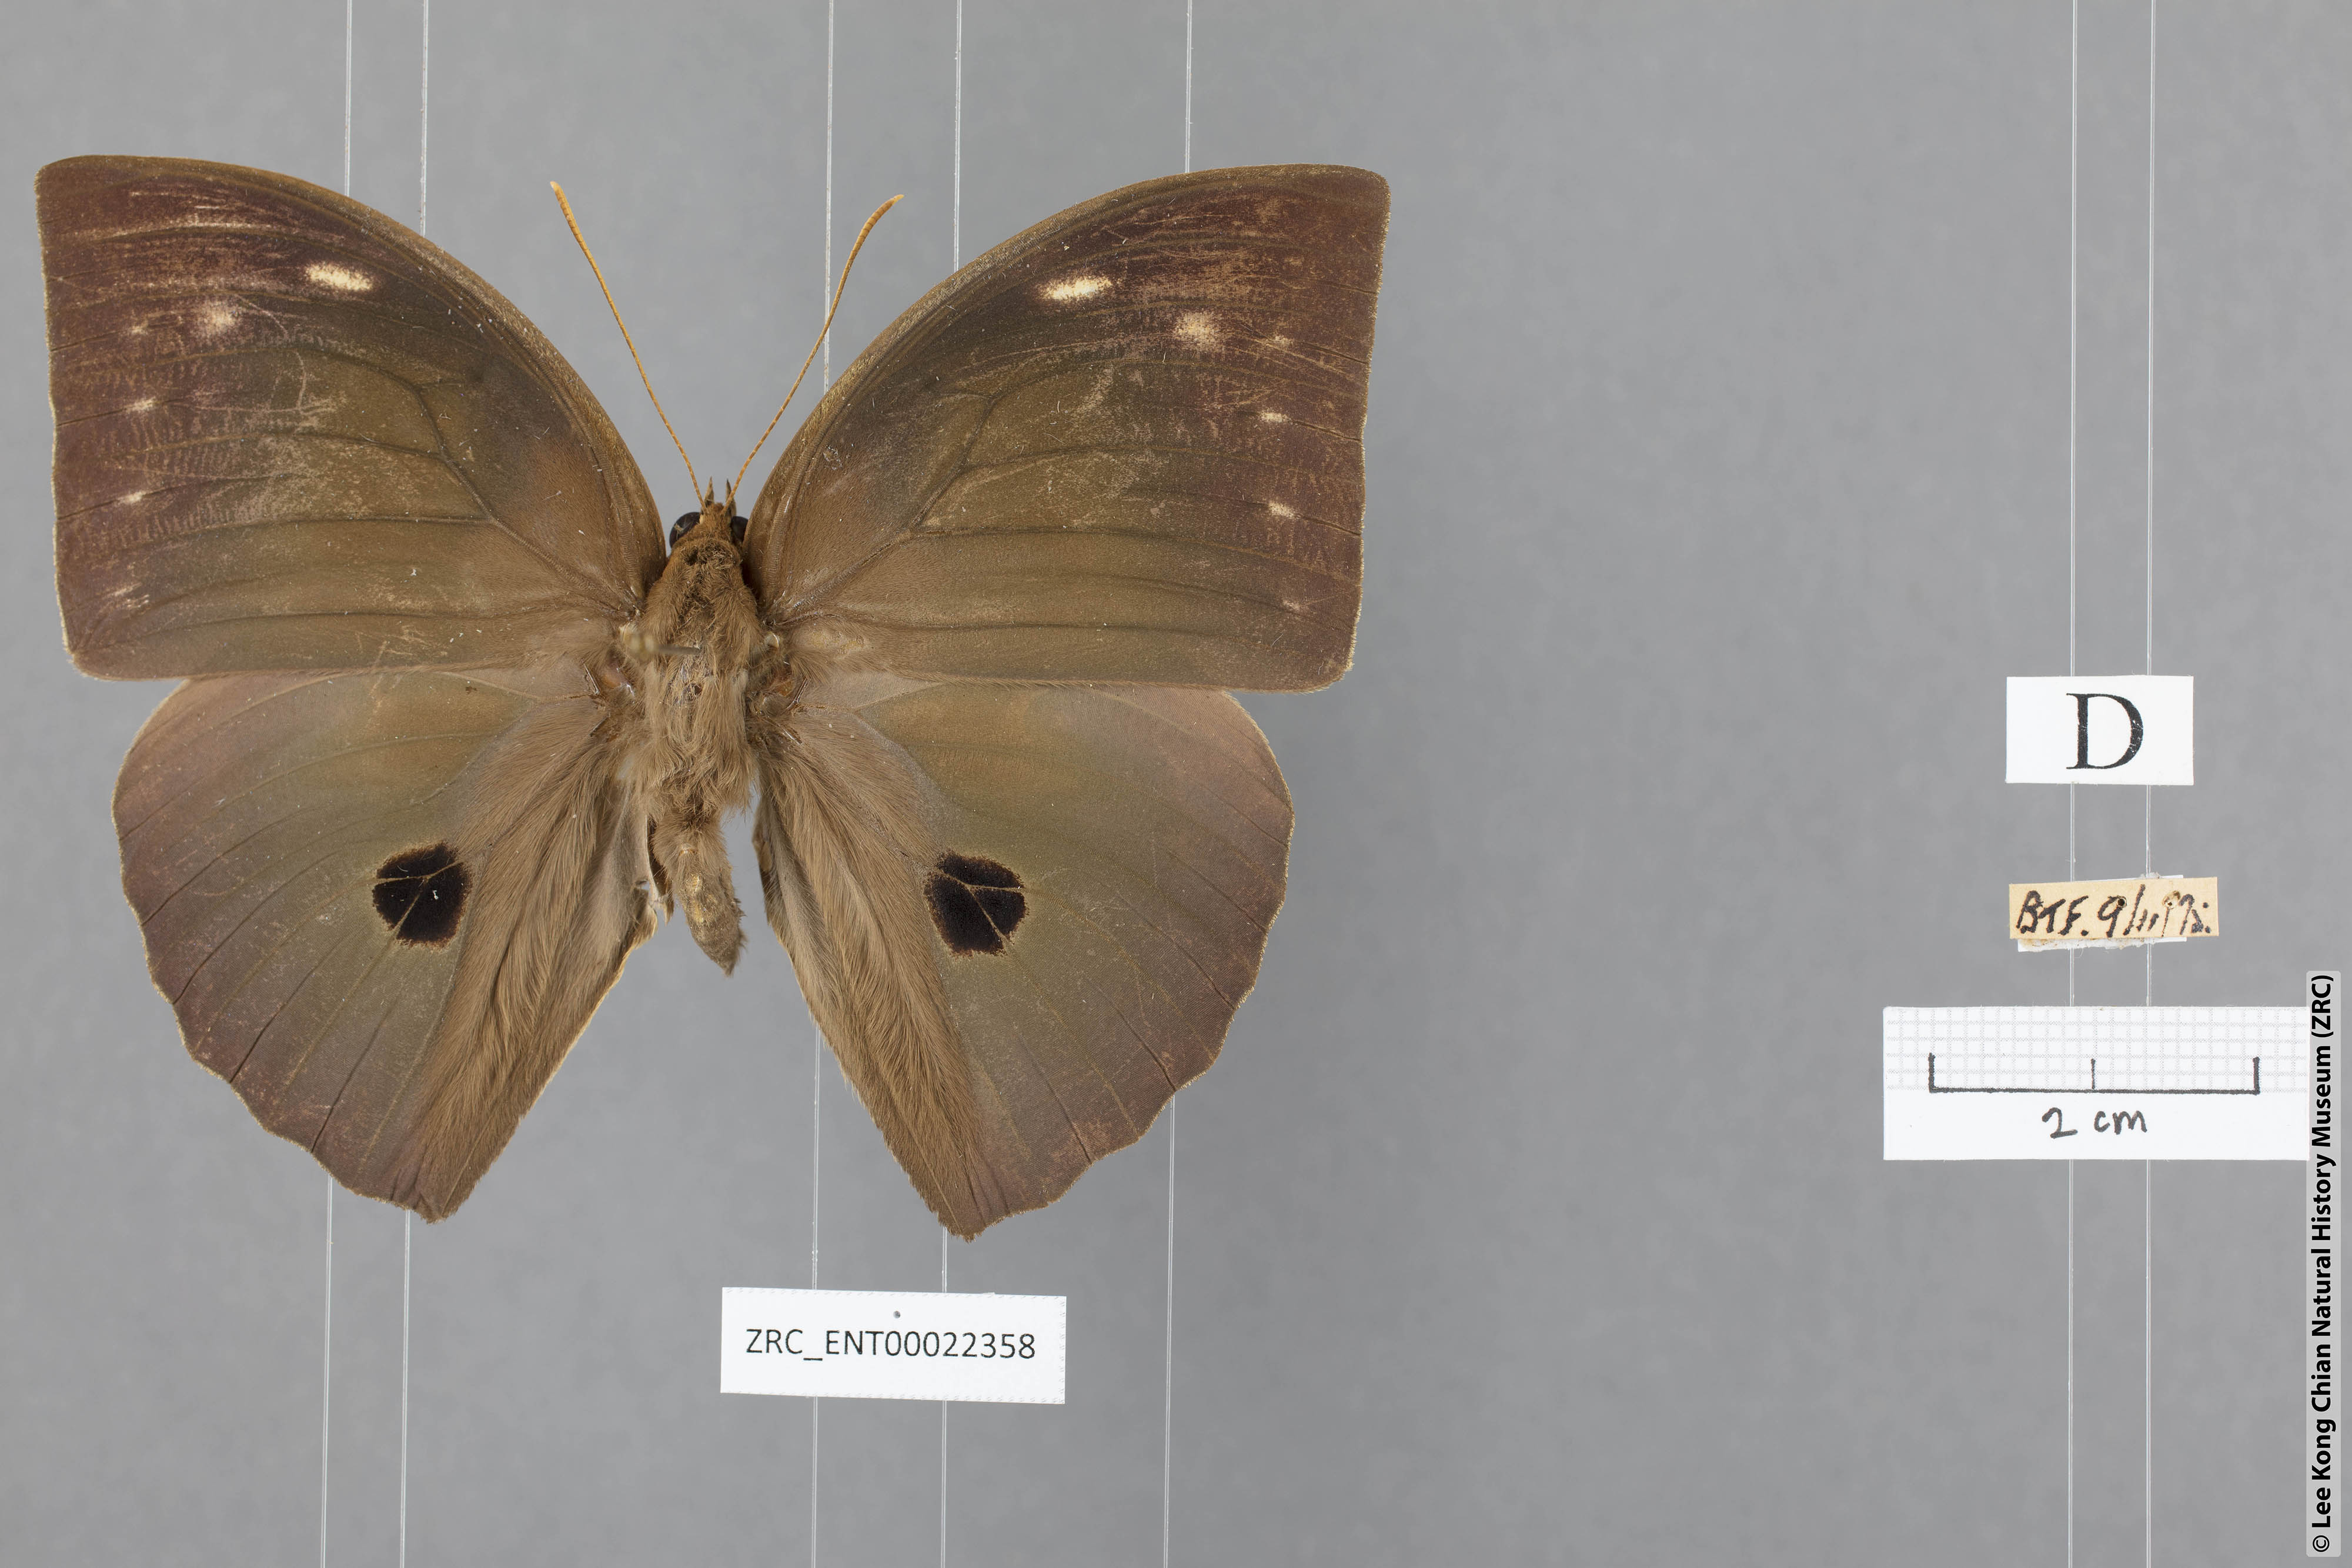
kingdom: Animalia
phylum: Arthropoda
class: Insecta
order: Lepidoptera
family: Nymphalidae
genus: Discophora
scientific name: Discophora timora
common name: Great duffer
